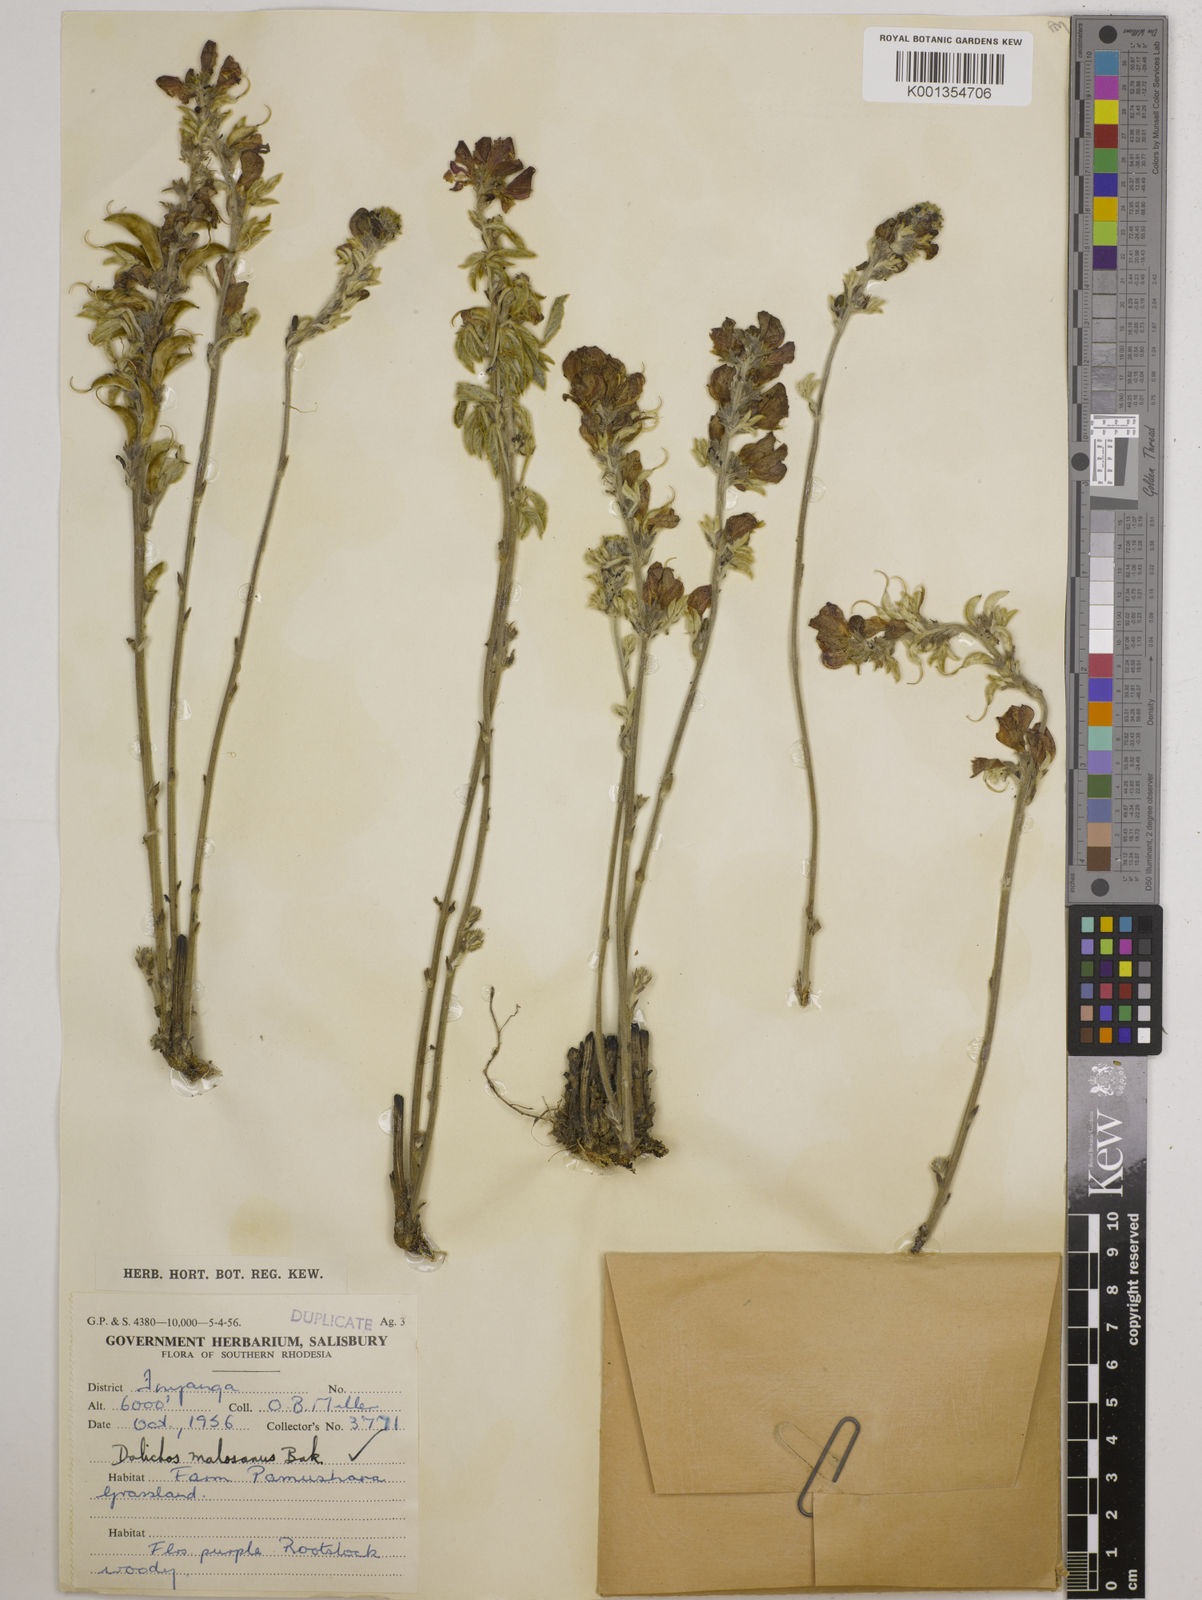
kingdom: Plantae
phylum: Tracheophyta
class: Magnoliopsida
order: Fabales
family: Fabaceae
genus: Dolichos
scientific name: Dolichos kilimandscharicus
